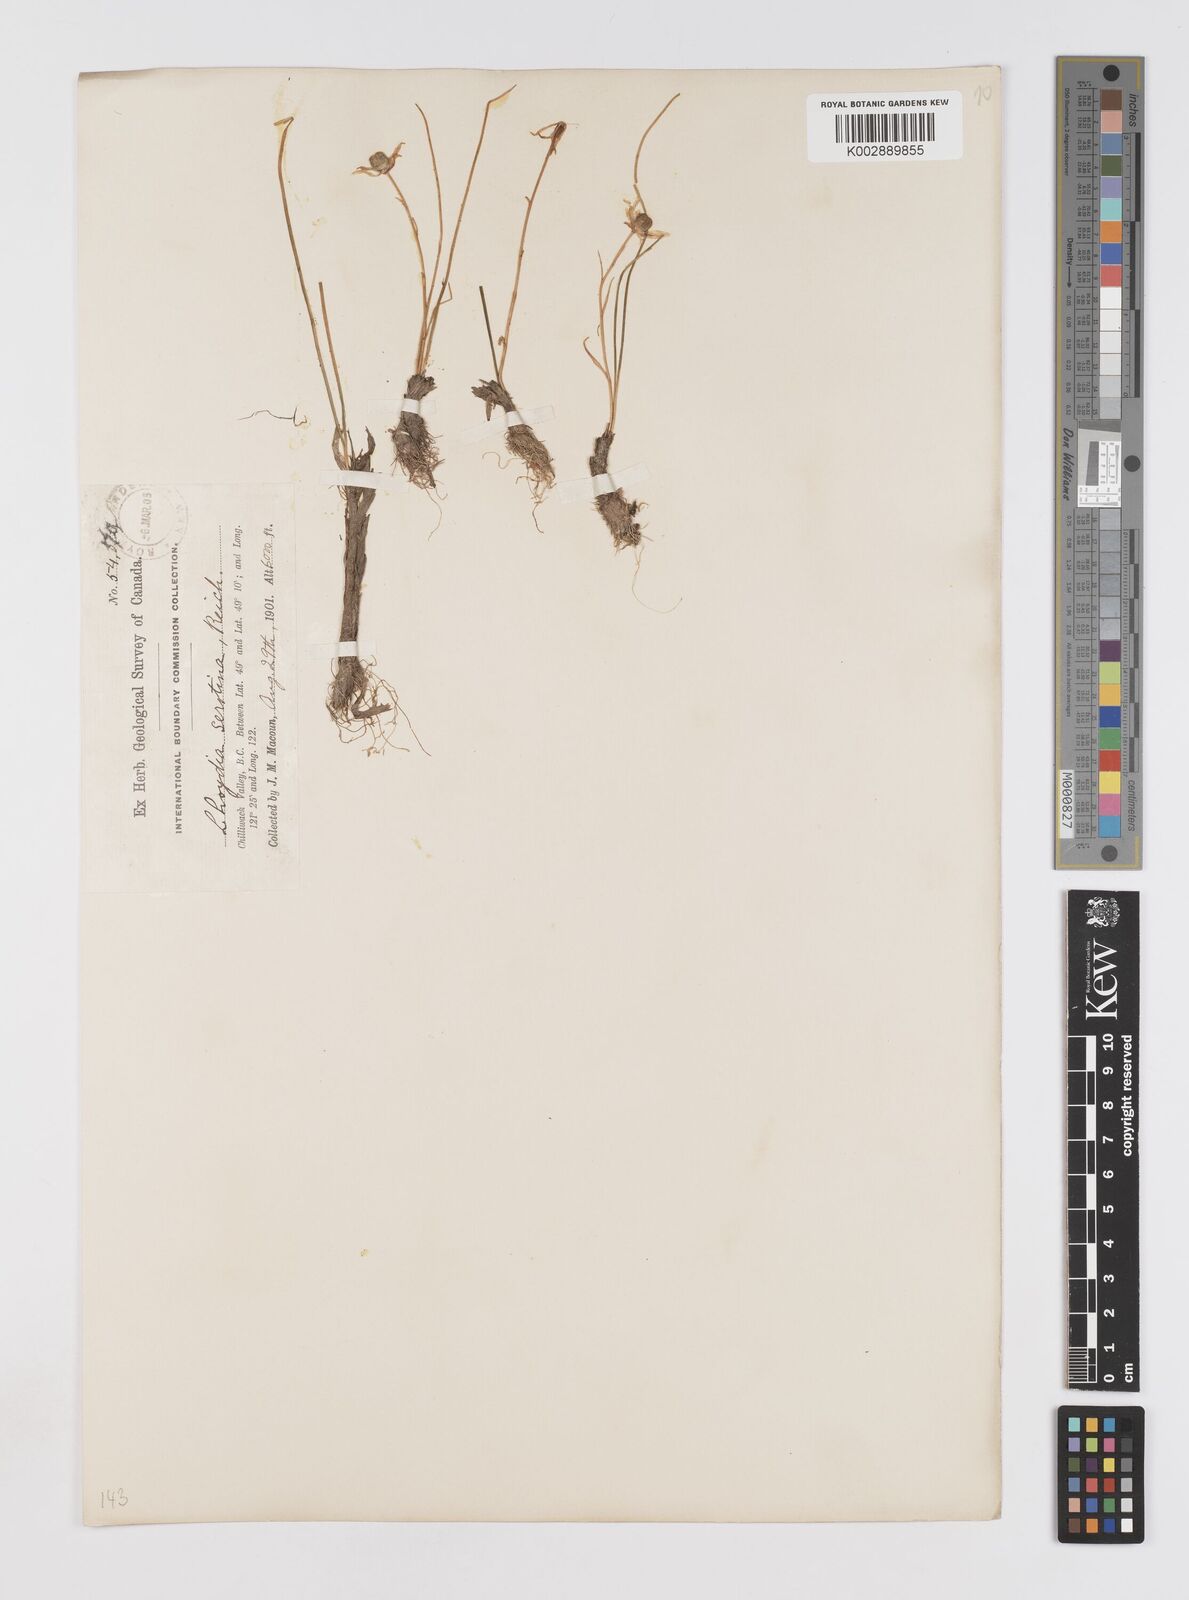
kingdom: Plantae
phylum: Tracheophyta
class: Liliopsida
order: Liliales
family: Liliaceae
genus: Gagea
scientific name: Gagea serotina
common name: Snowdon lily
